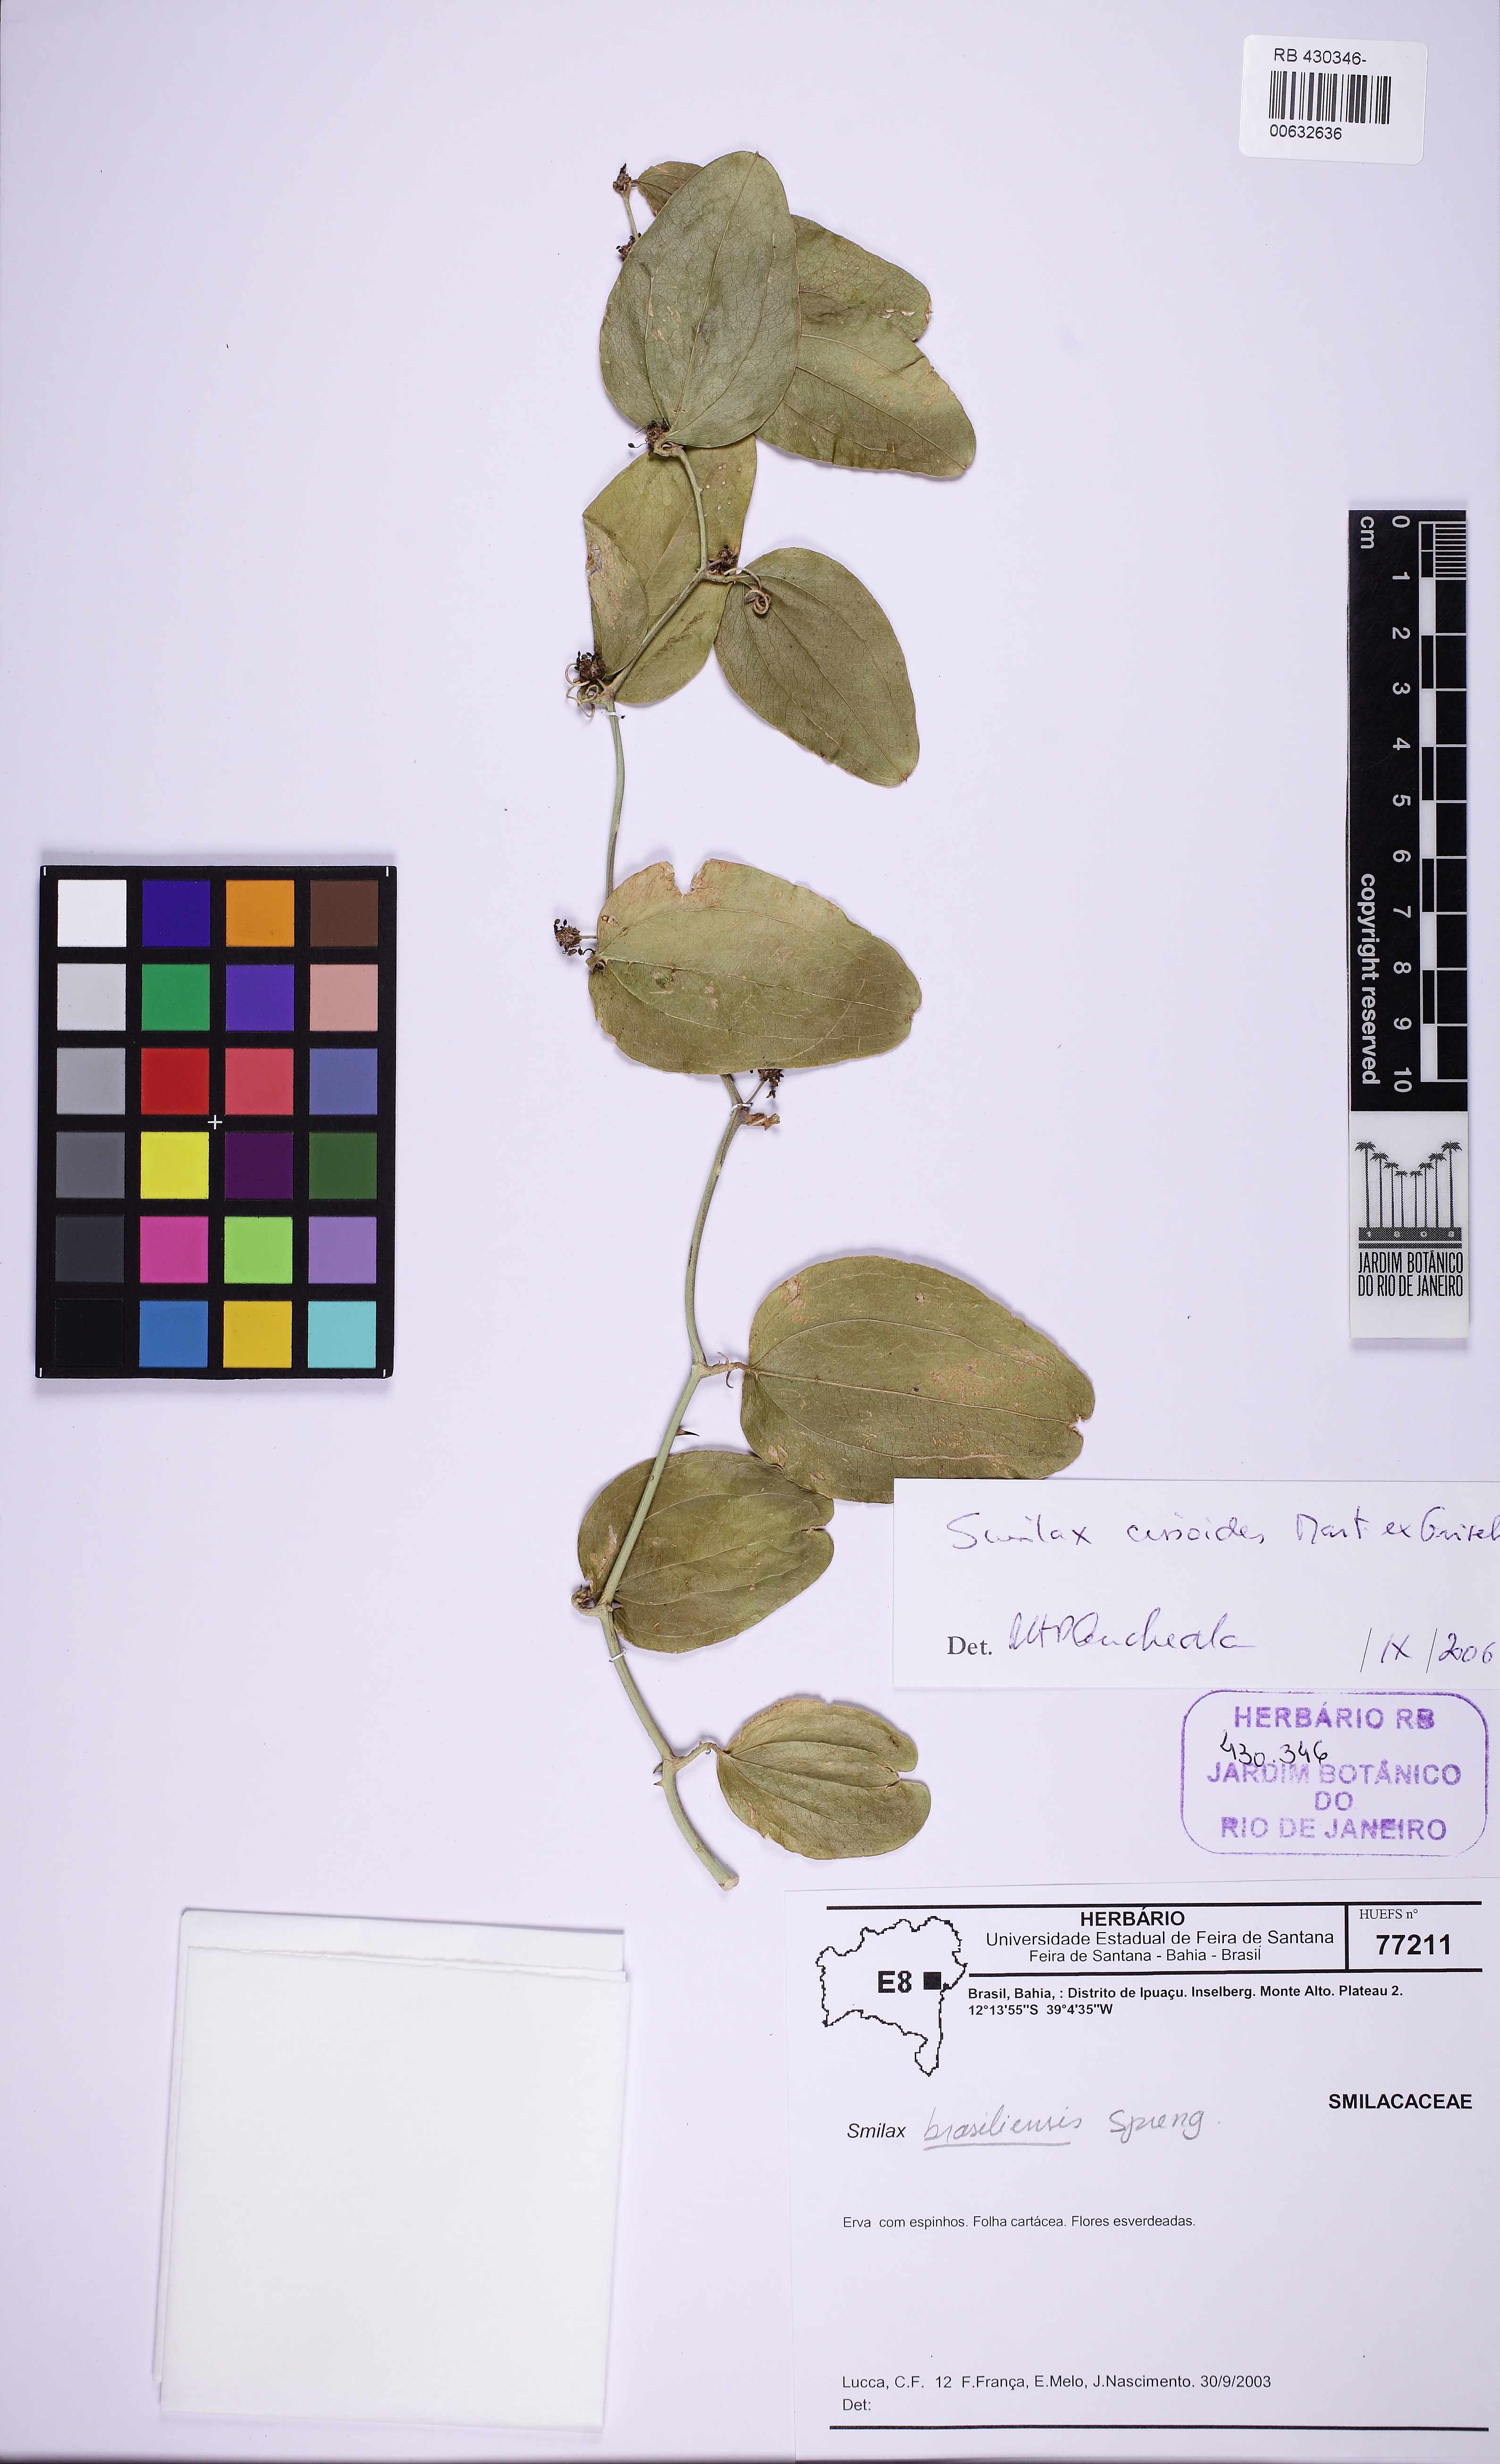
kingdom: Plantae
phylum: Tracheophyta
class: Liliopsida
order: Liliales
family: Smilacaceae
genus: Smilax
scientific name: Smilax brasiliensis
